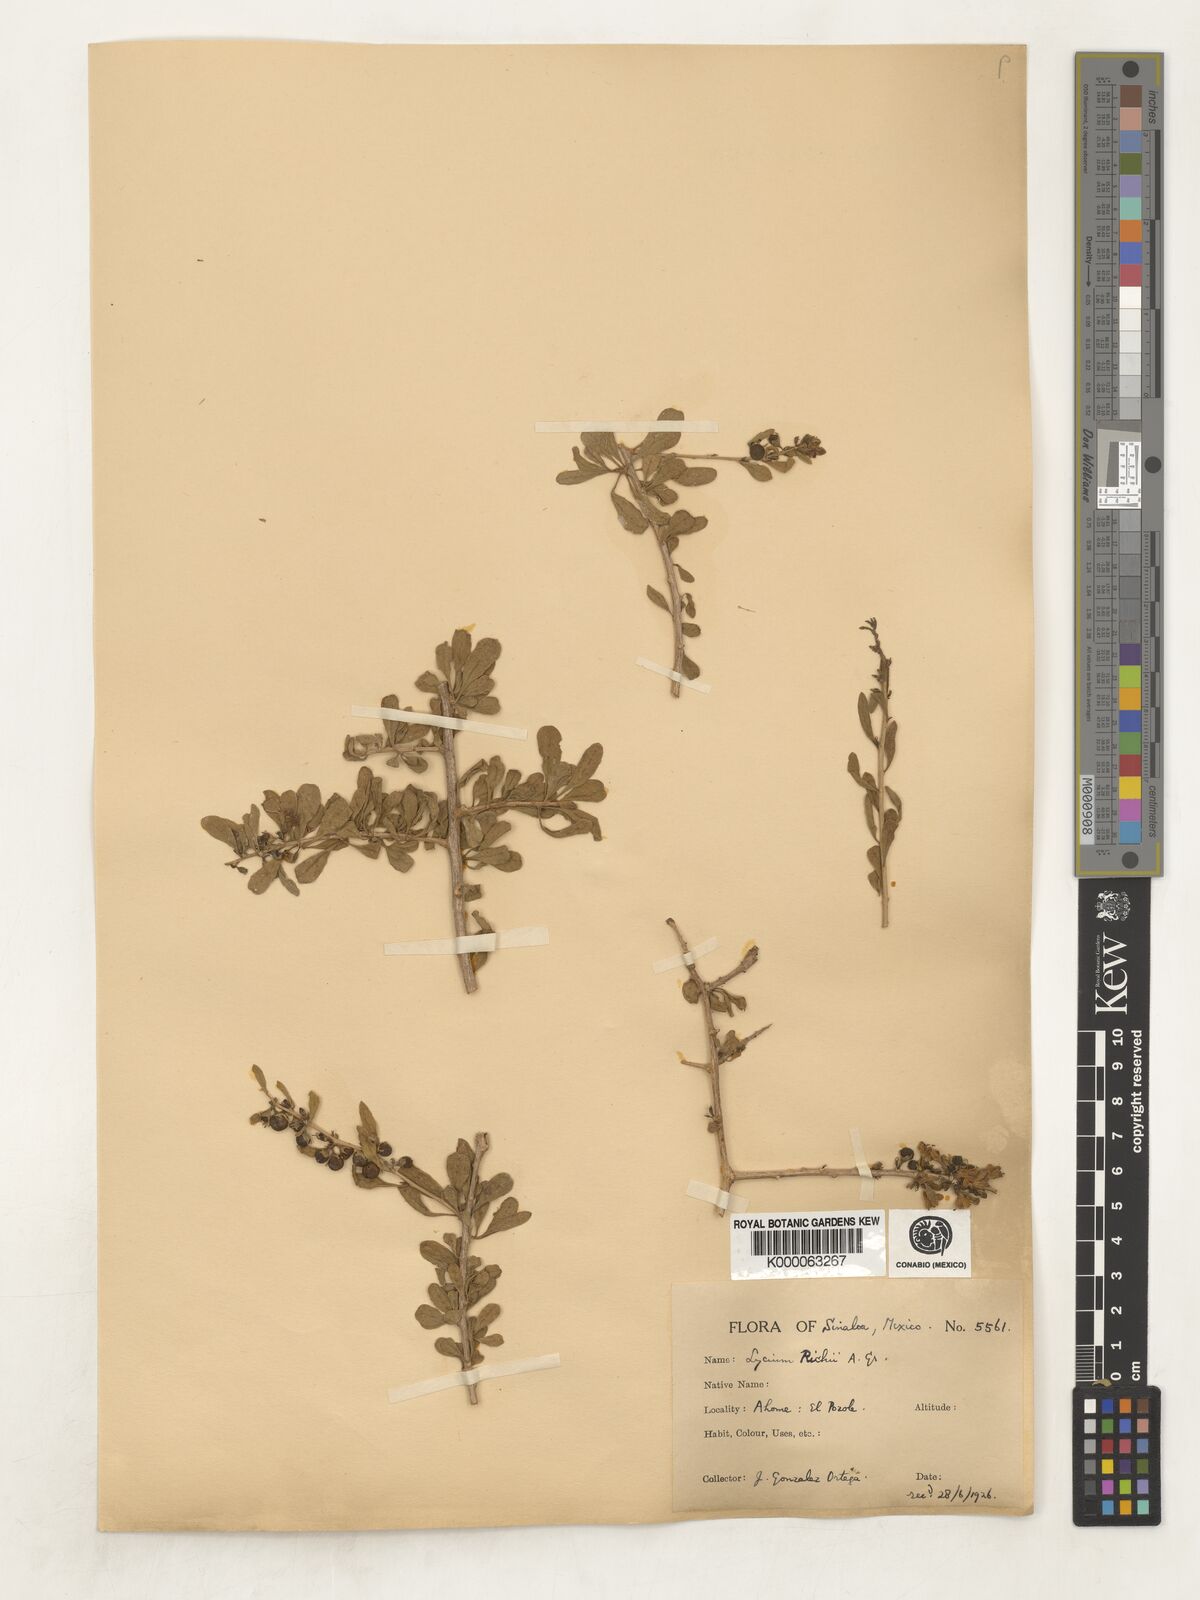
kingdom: Plantae
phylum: Tracheophyta
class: Magnoliopsida
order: Solanales
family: Solanaceae
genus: Lycium
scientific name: Lycium brevipes
